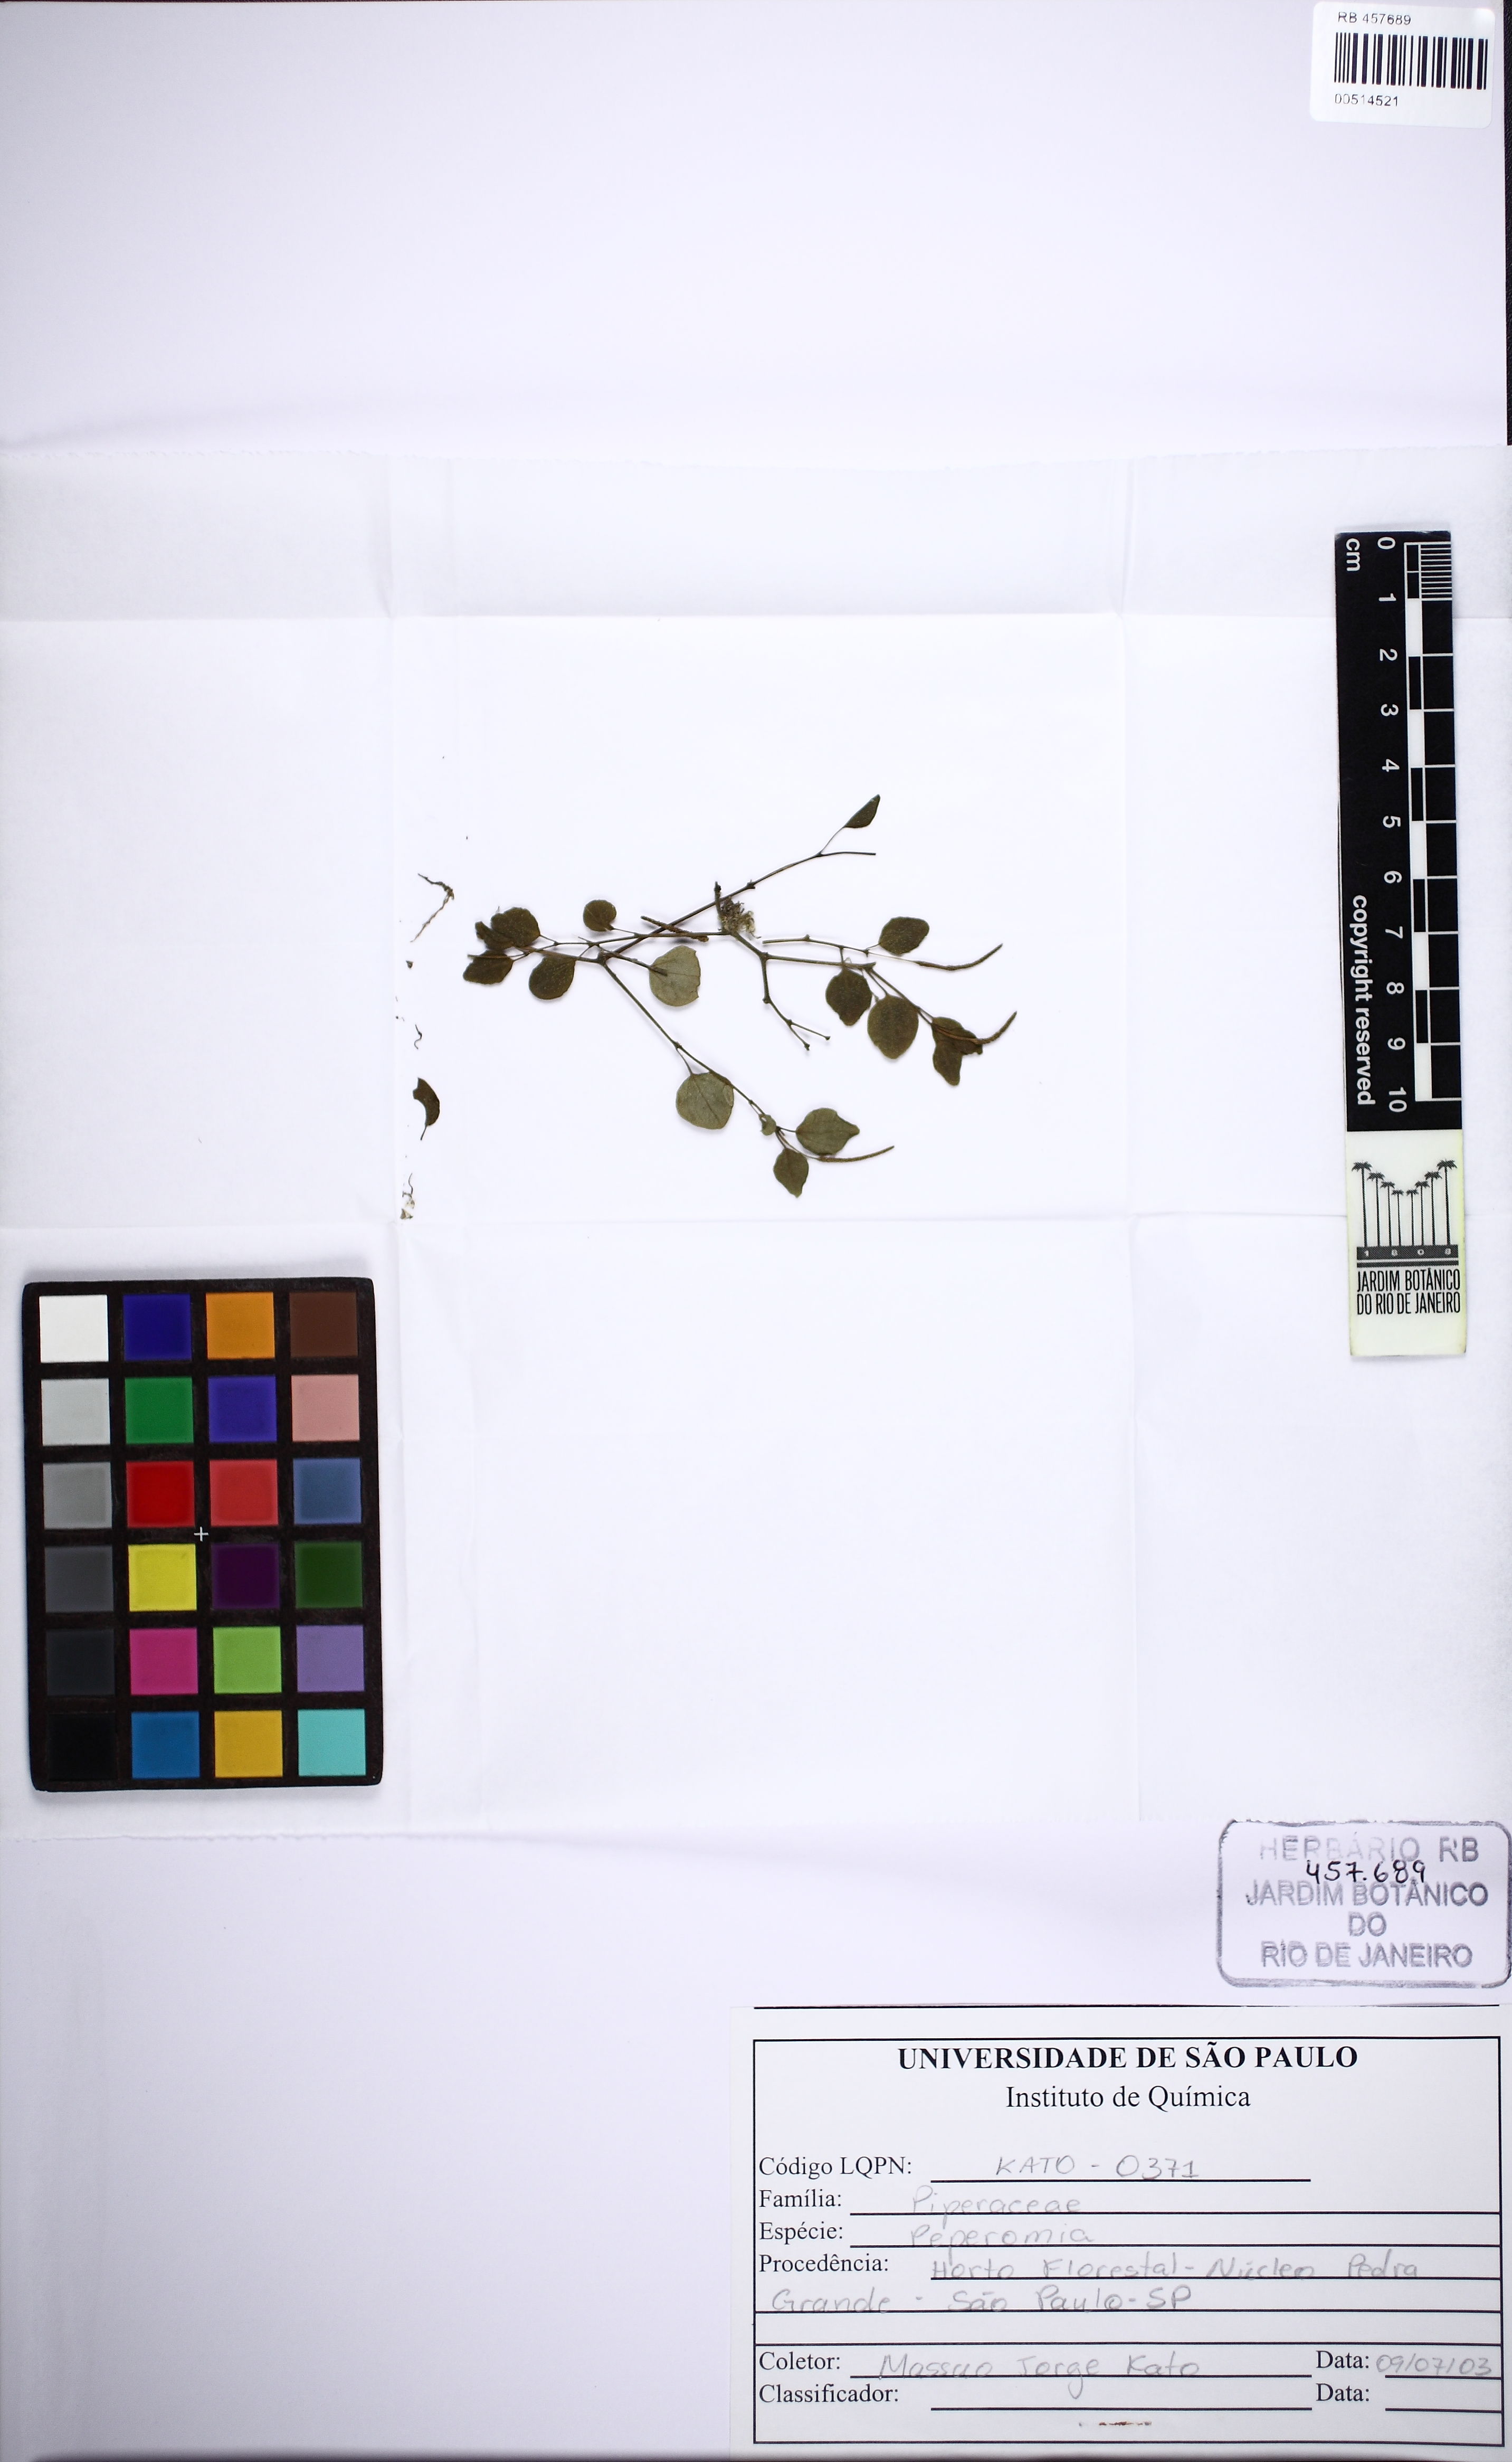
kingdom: Plantae
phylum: Tracheophyta
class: Magnoliopsida
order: Piperales
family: Piperaceae
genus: Peperomia
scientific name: Peperomia gracilicaulis
